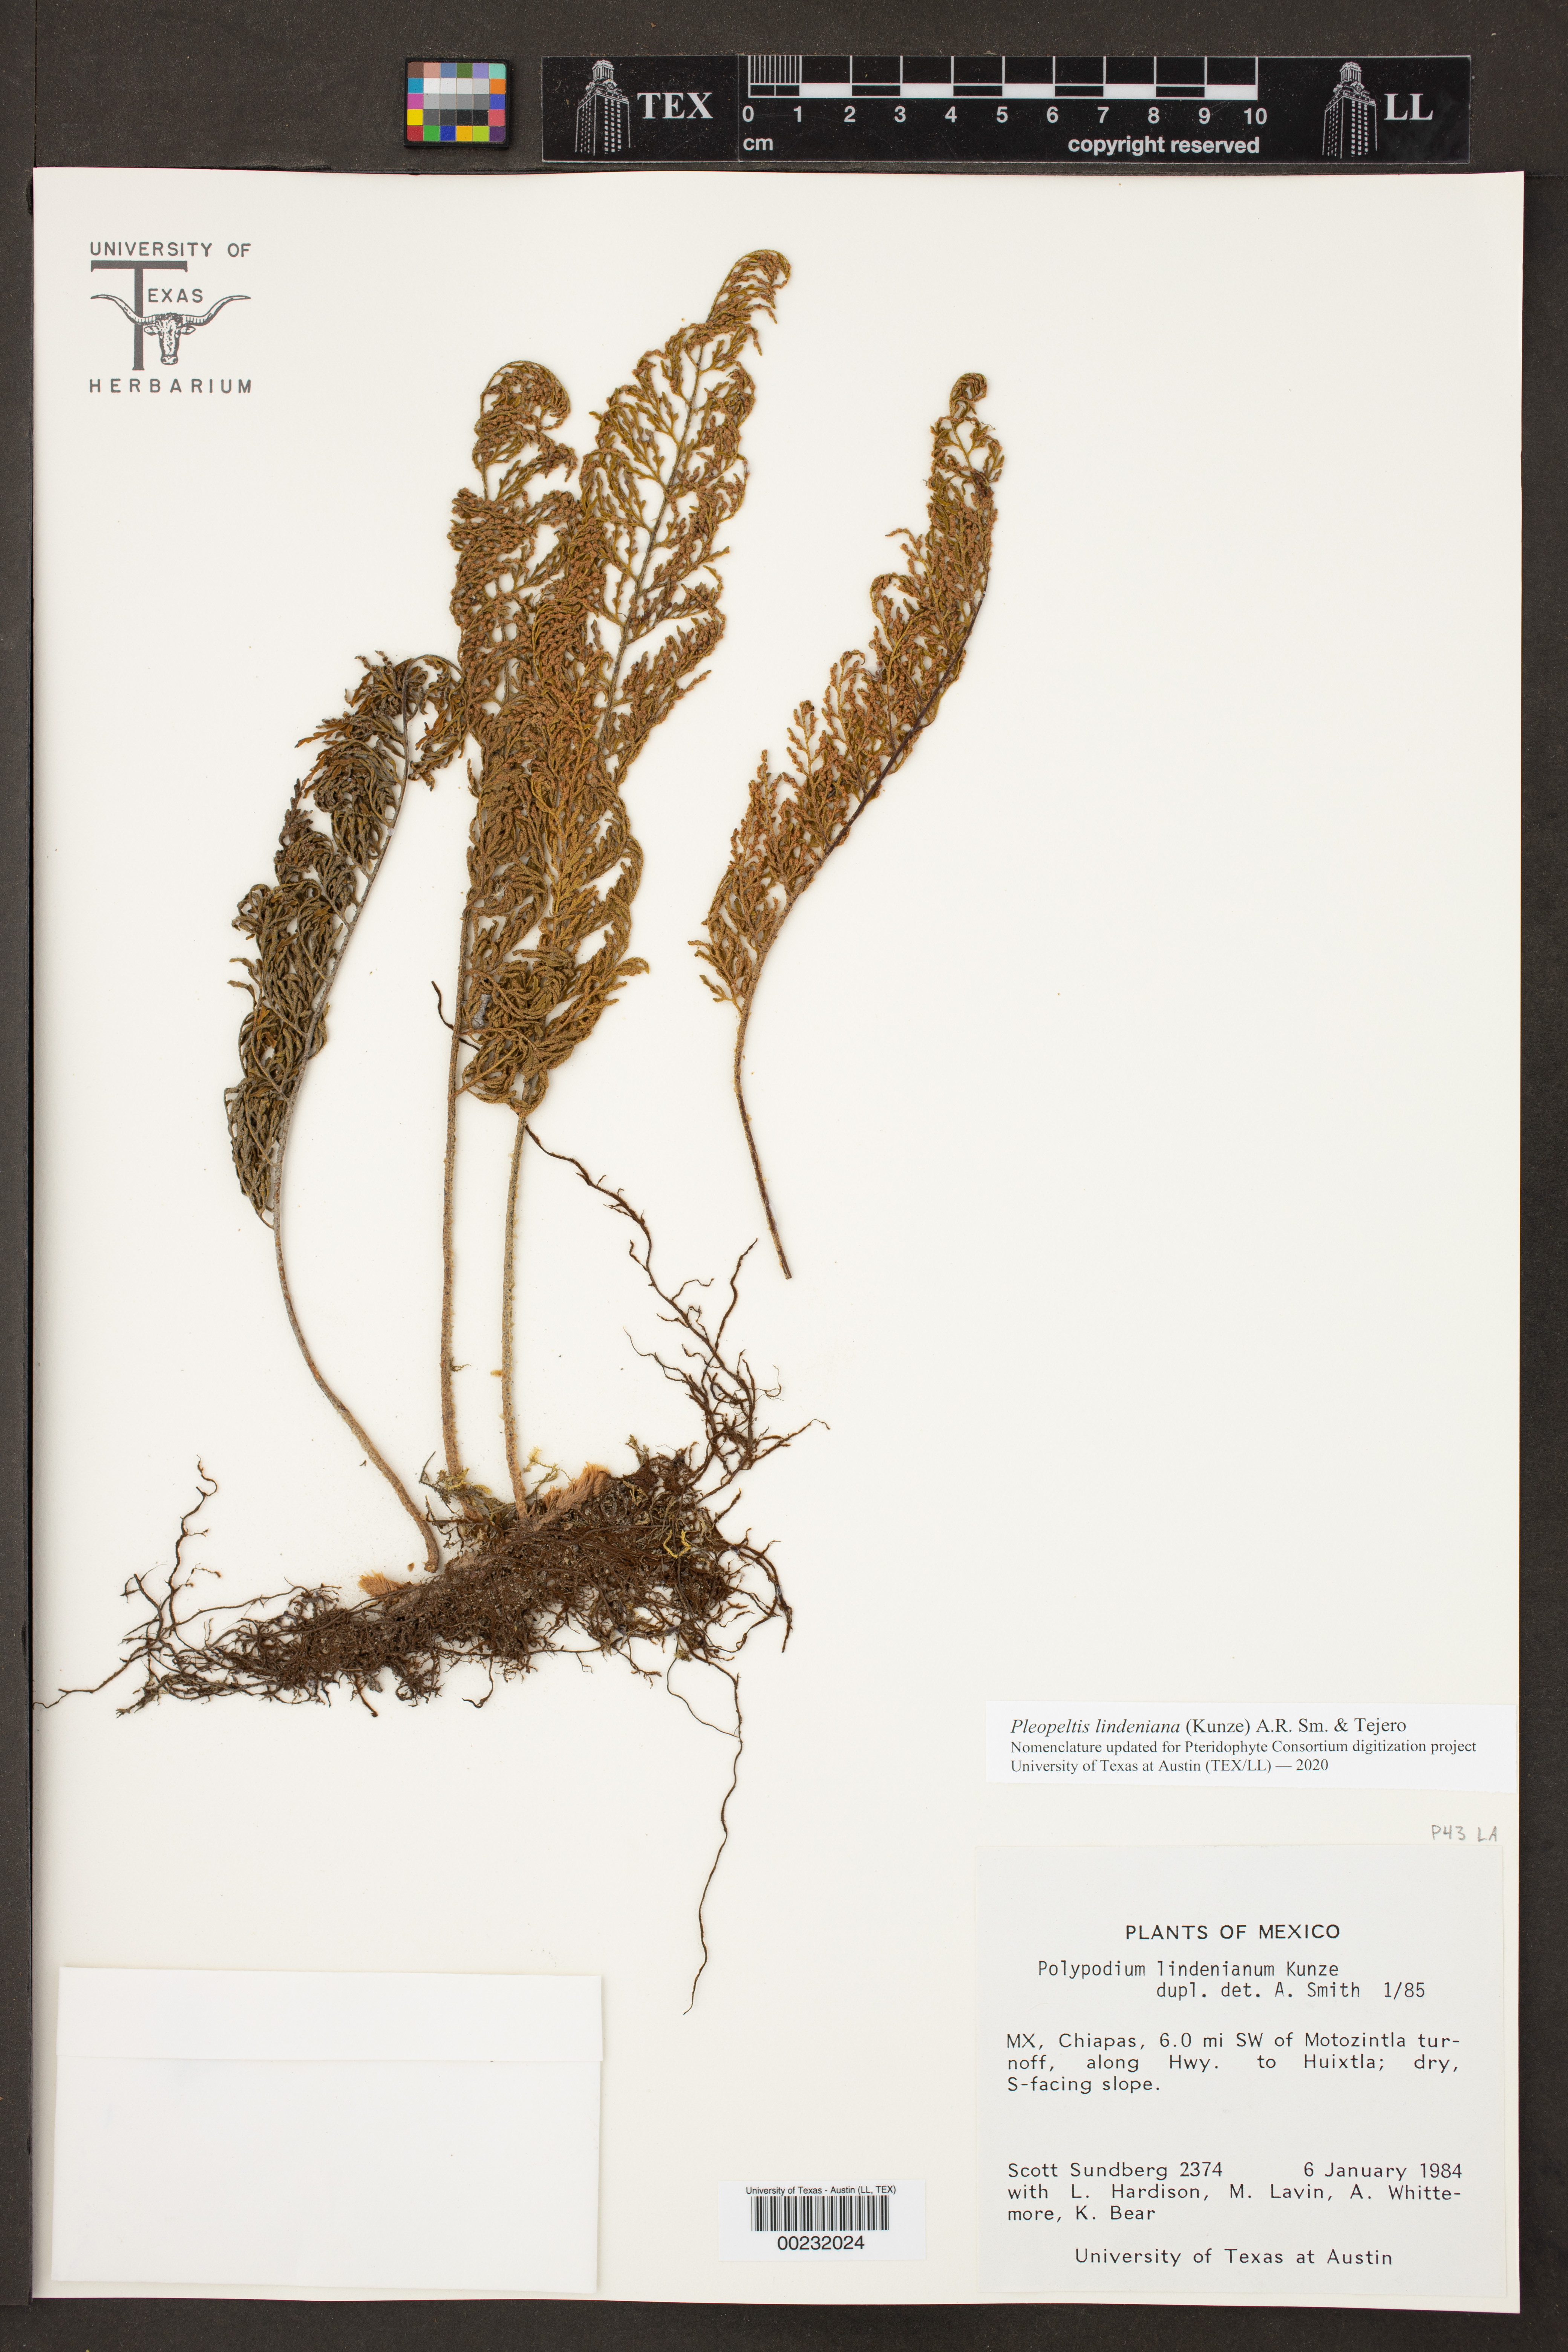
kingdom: Plantae
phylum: Tracheophyta
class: Polypodiopsida
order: Polypodiales
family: Polypodiaceae
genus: Pleopeltis
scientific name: Pleopeltis lindeniana
